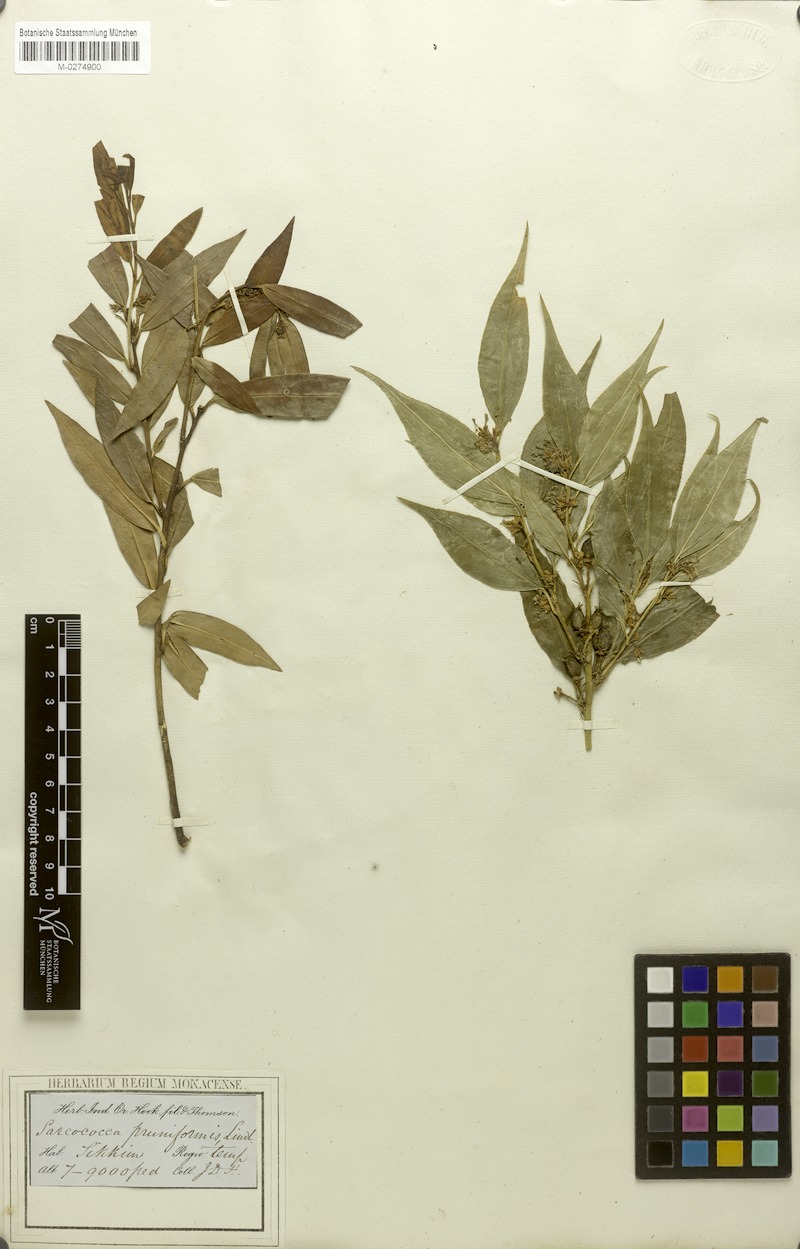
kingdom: Plantae
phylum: Tracheophyta
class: Magnoliopsida
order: Buxales
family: Buxaceae
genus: Sarcococca
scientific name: Sarcococca saligna
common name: Willow-leaf sweet-box
